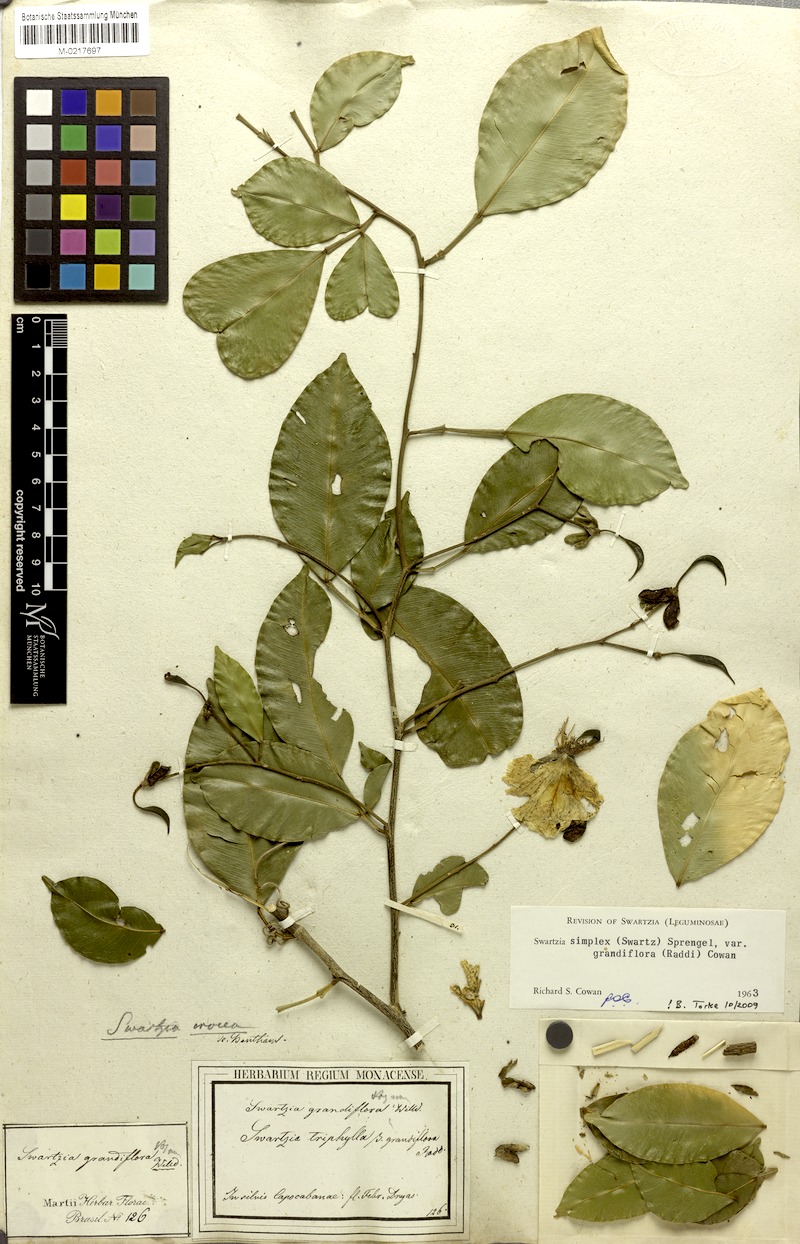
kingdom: Plantae
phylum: Tracheophyta
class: Magnoliopsida
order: Fabales
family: Fabaceae
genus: Swartzia
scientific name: Swartzia simplex
